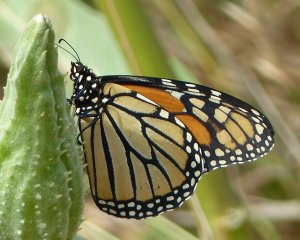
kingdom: Animalia
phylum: Arthropoda
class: Insecta
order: Lepidoptera
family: Nymphalidae
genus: Danaus
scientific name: Danaus plexippus
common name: Monarch
